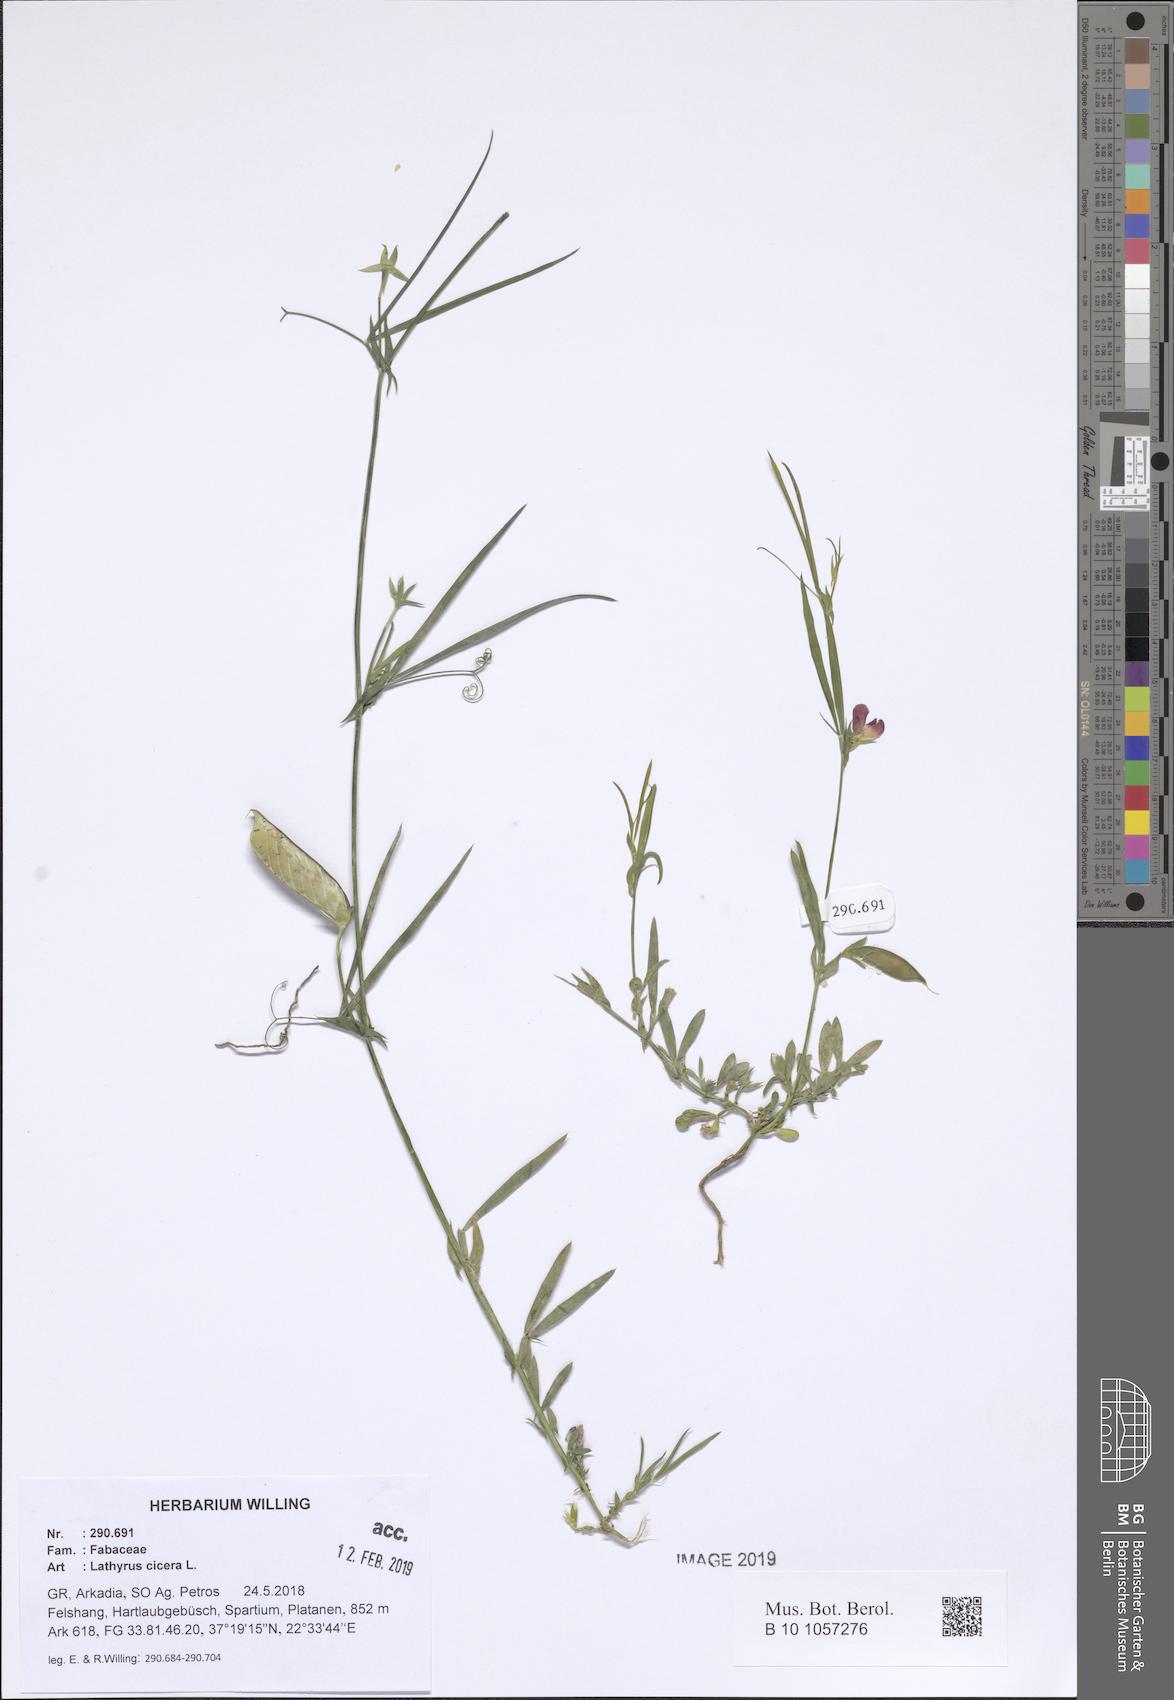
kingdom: Plantae
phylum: Tracheophyta
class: Magnoliopsida
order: Fabales
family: Fabaceae
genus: Lathyrus
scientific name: Lathyrus cicera
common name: Red vetchling
